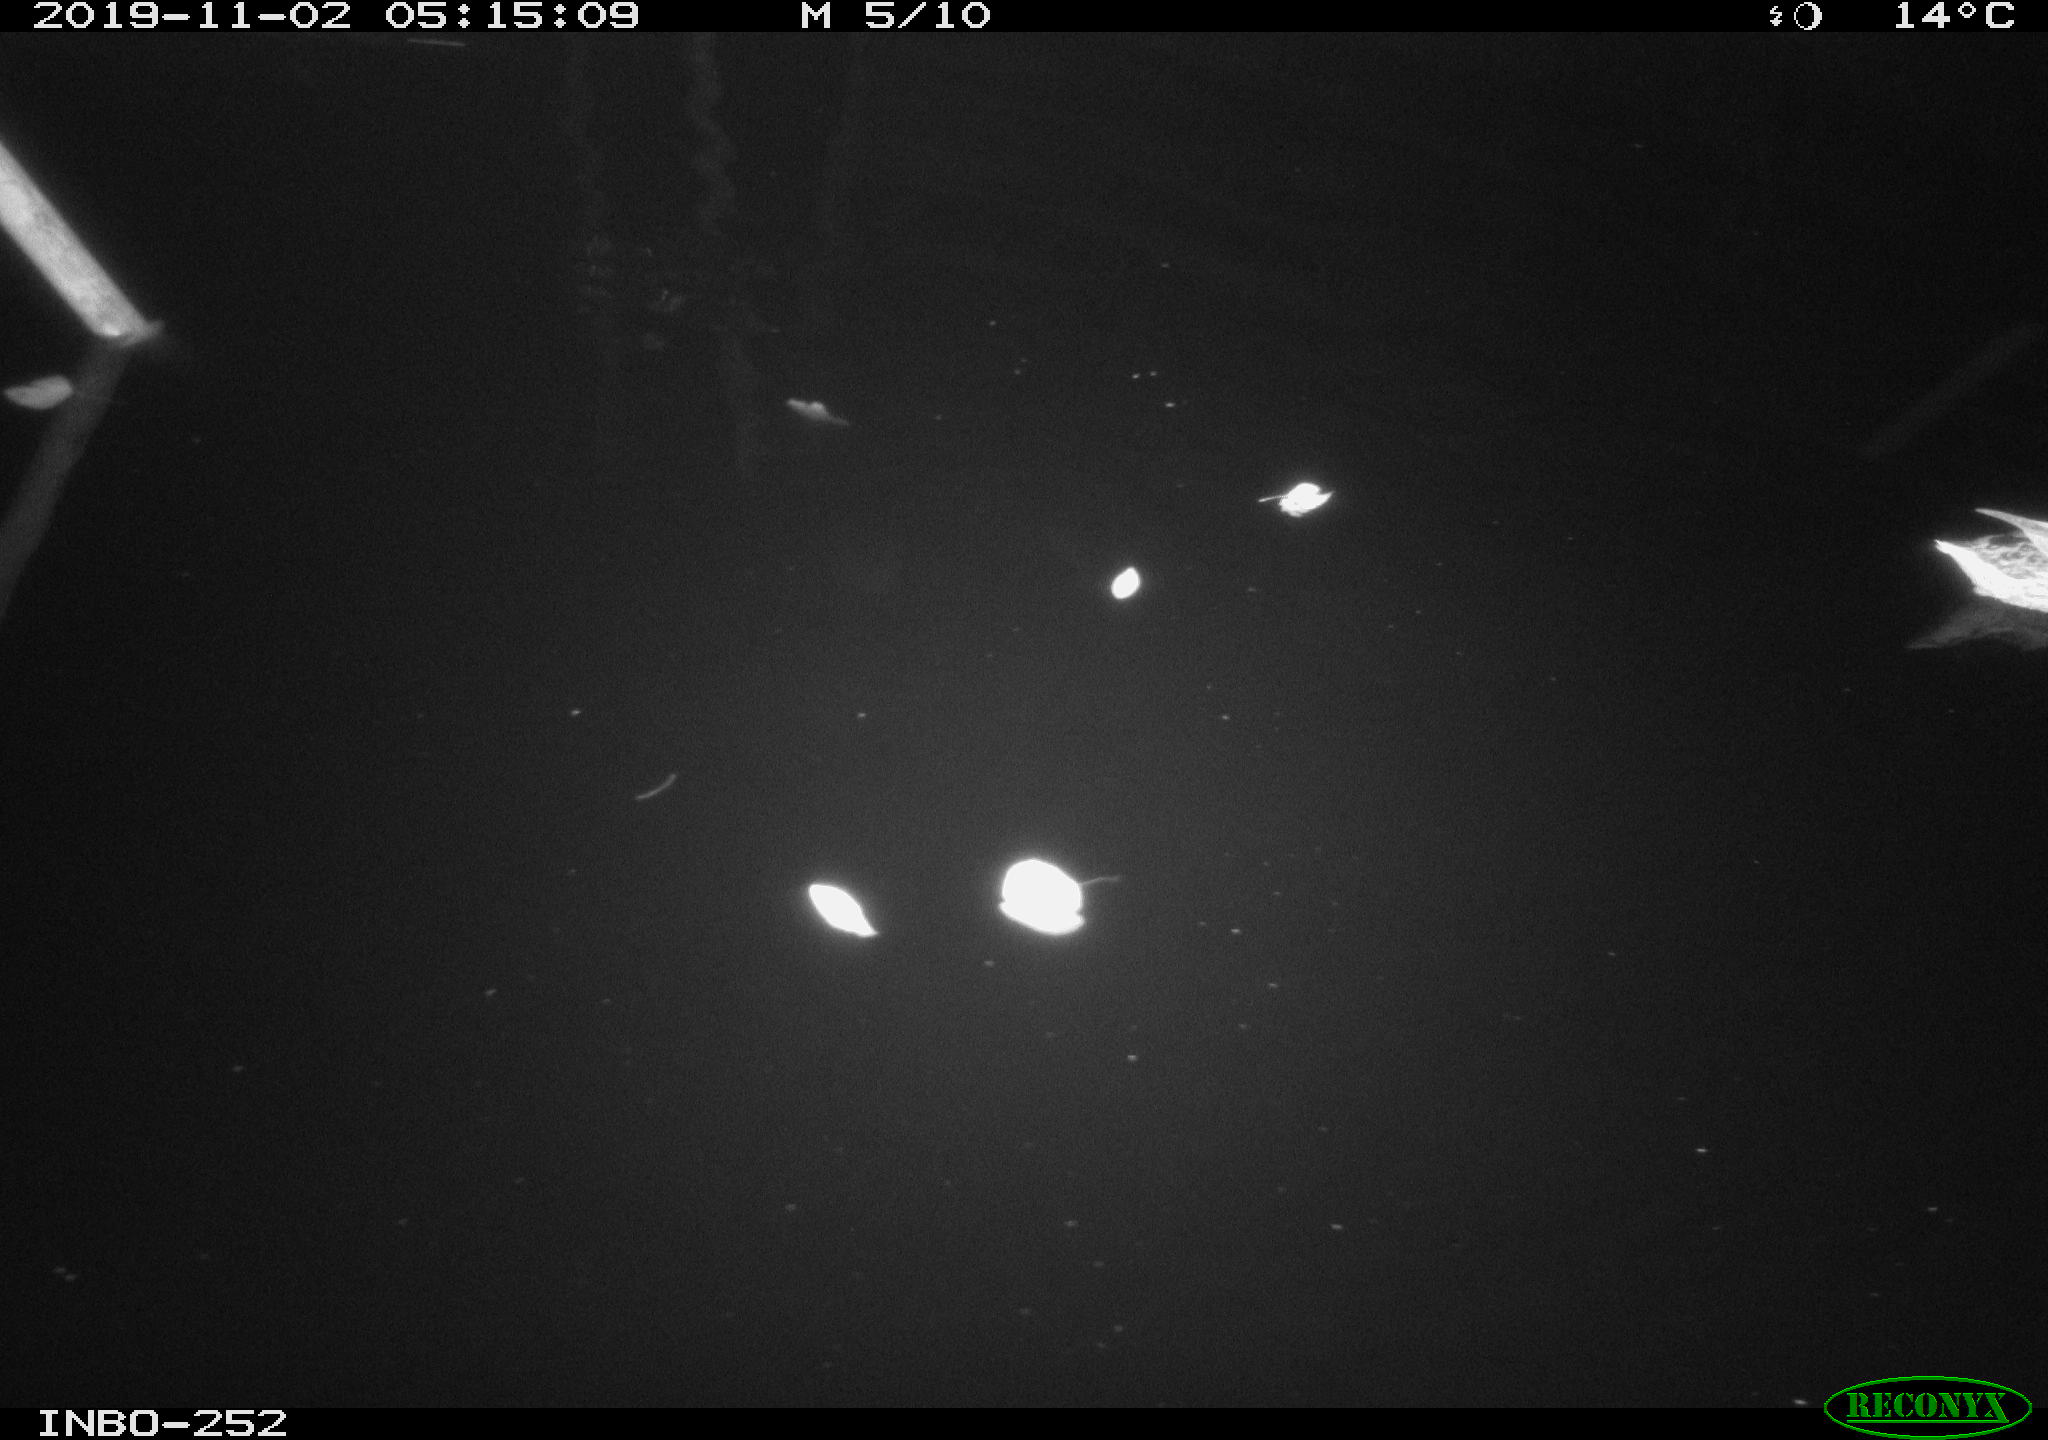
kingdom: Animalia
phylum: Chordata
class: Aves
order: Anseriformes
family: Anatidae
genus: Anas
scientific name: Anas platyrhynchos
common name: Mallard
